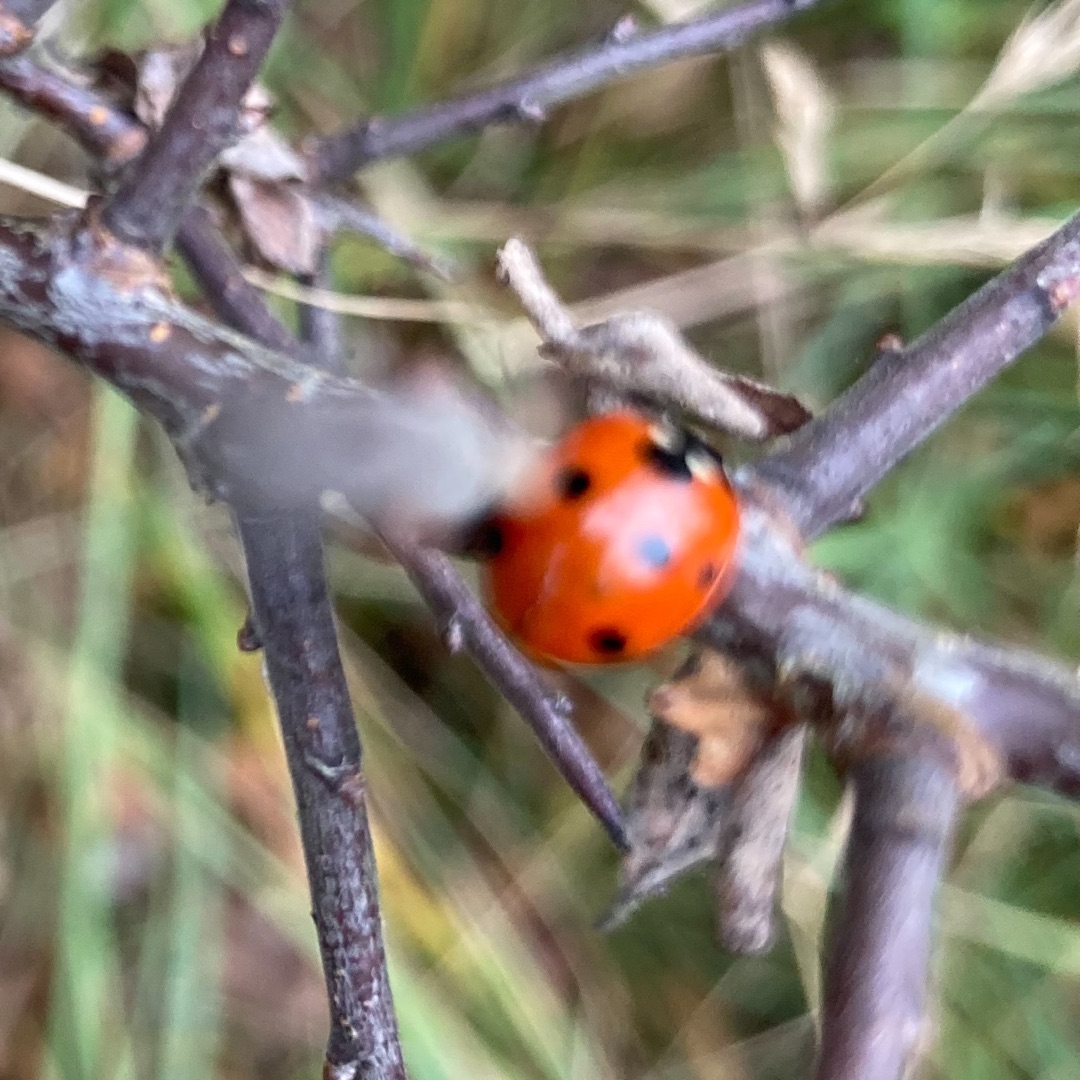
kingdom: Animalia
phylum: Arthropoda
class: Insecta
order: Coleoptera
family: Coccinellidae
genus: Coccinella
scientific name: Coccinella septempunctata
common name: Syvplettet mariehøne
